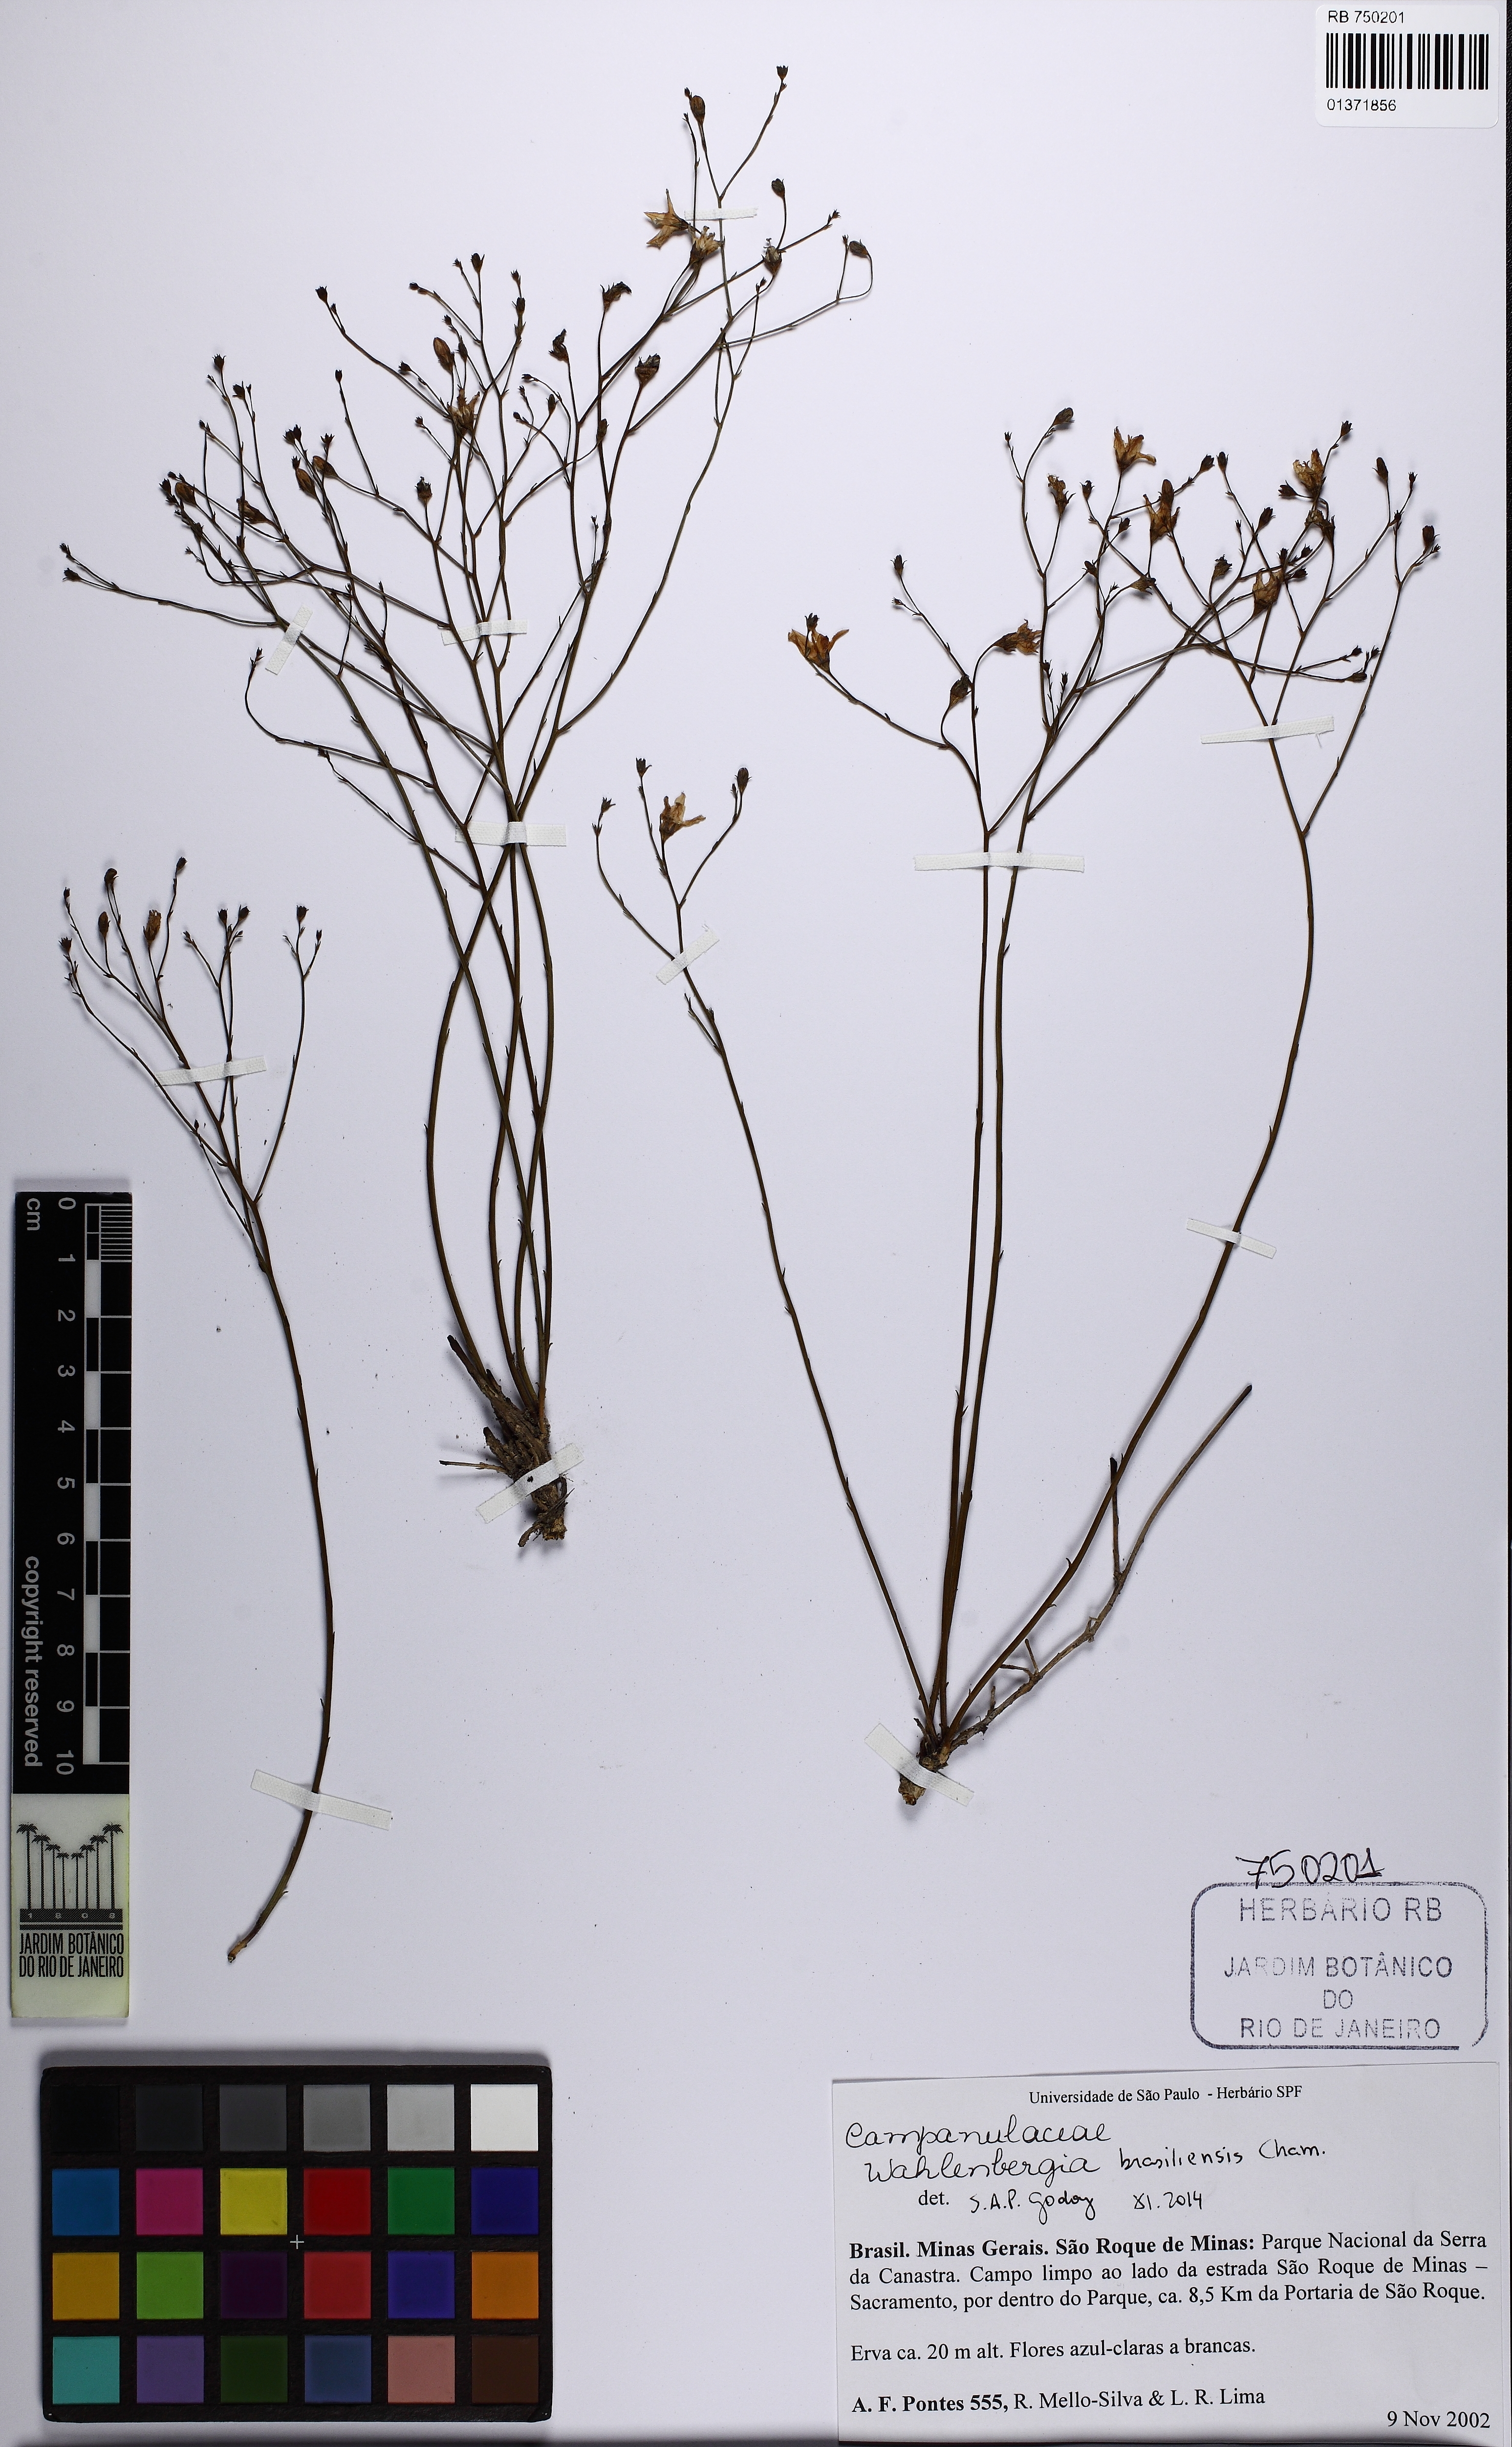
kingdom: Plantae
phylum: Tracheophyta
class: Magnoliopsida
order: Asterales
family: Campanulaceae
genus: Wahlenbergia
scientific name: Wahlenbergia brasiliensis
